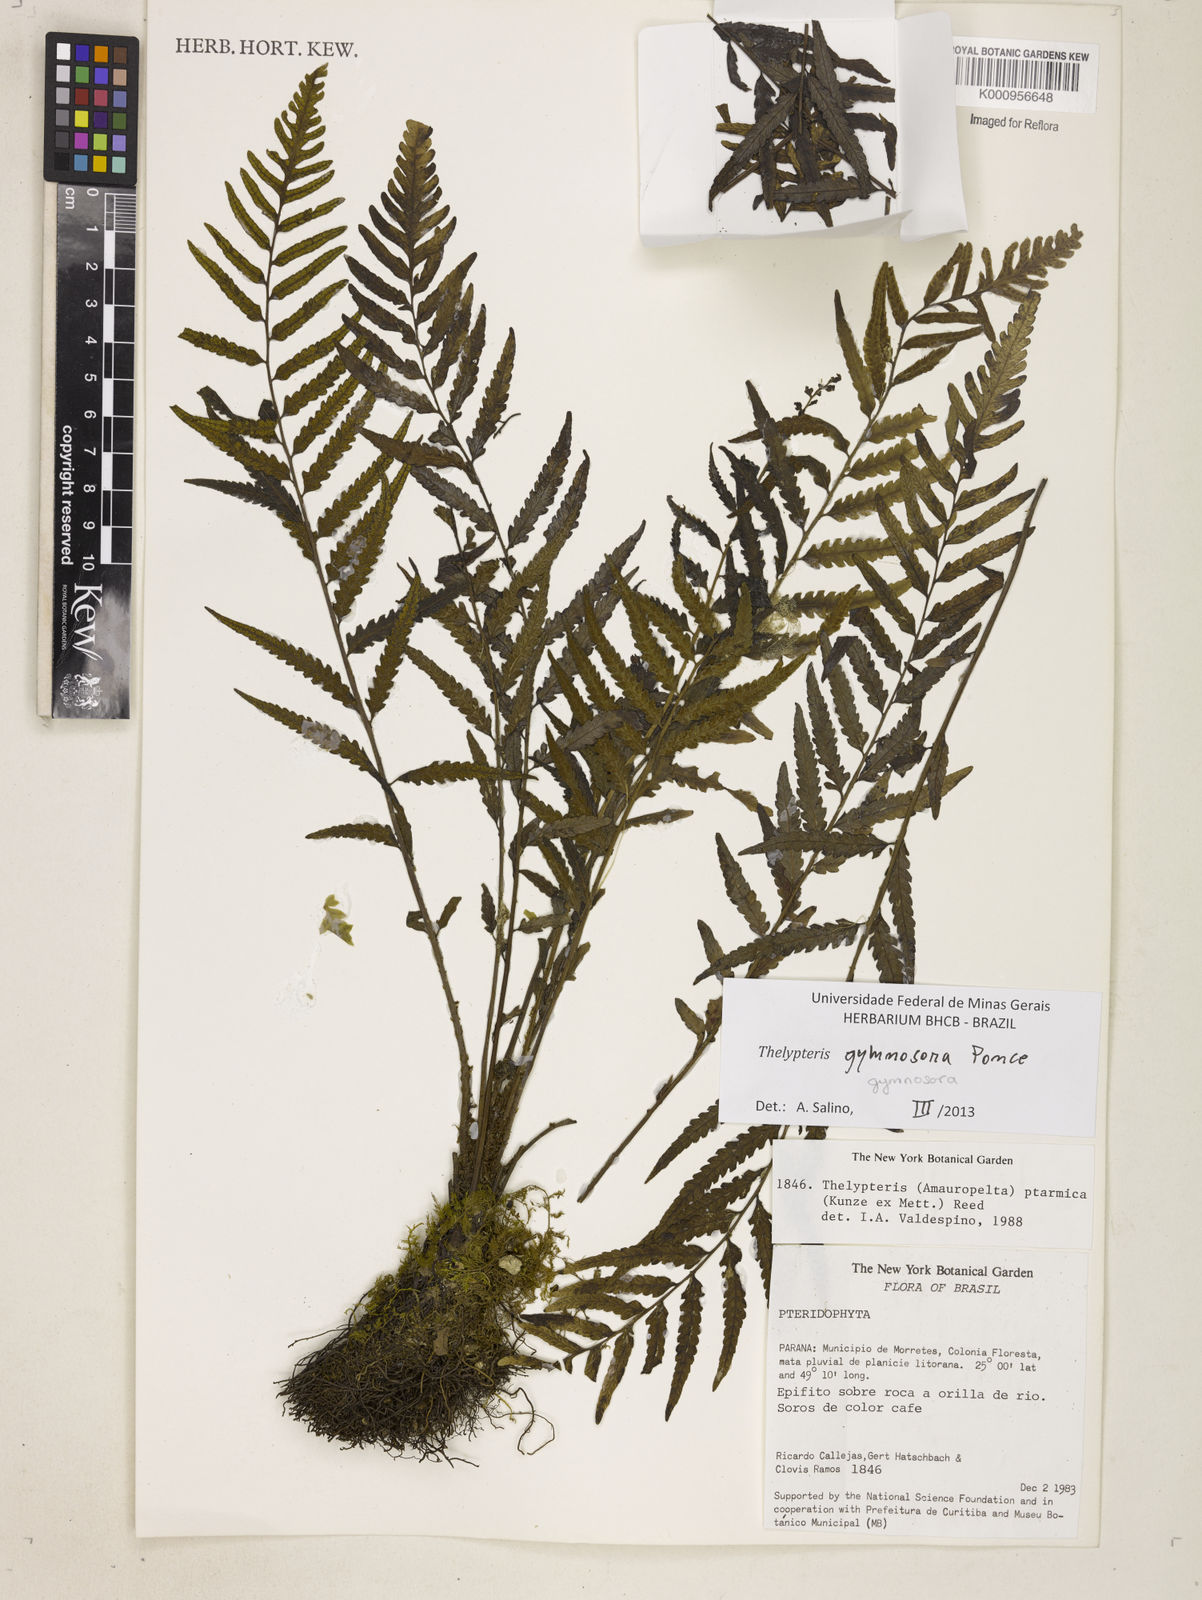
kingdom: Plantae
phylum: Tracheophyta
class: Polypodiopsida
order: Polypodiales
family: Thelypteridaceae
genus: Amauropelta
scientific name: Amauropelta
